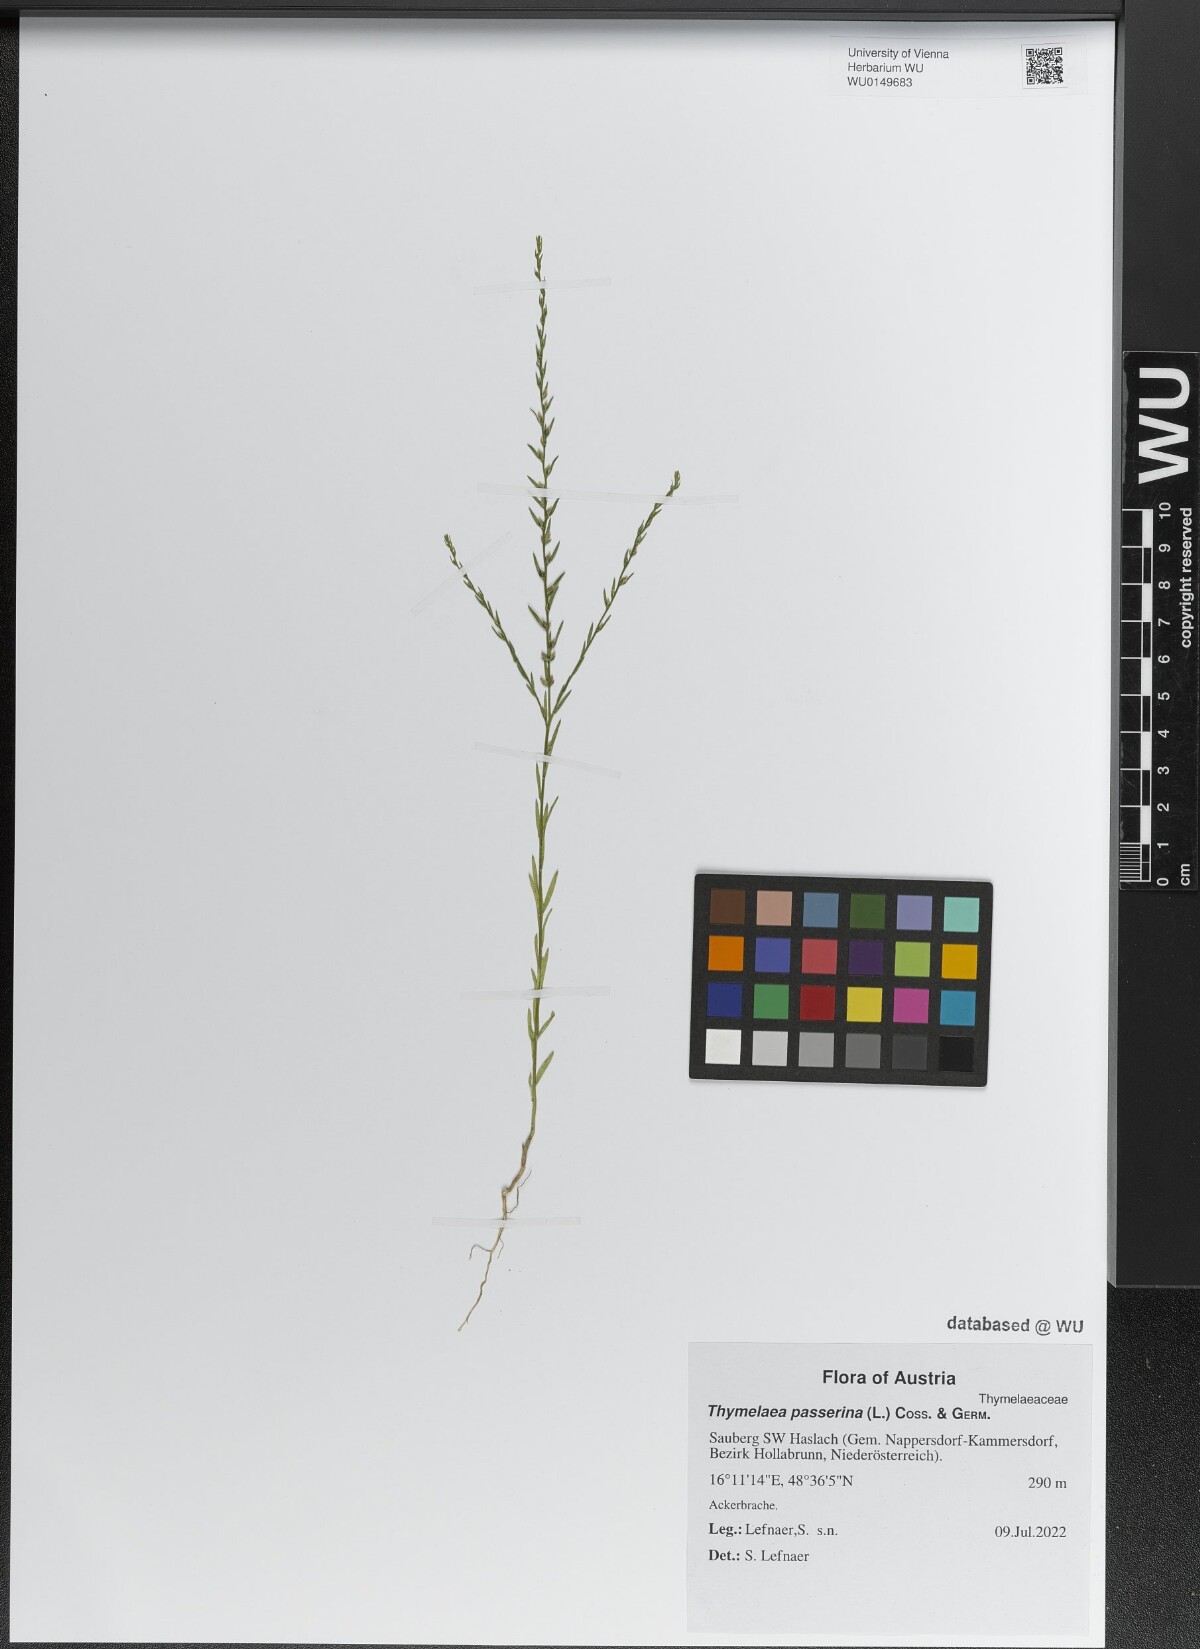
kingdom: Plantae
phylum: Tracheophyta
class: Magnoliopsida
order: Malvales
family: Thymelaeaceae
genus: Thymelaea
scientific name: Thymelaea passerina
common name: Annual thymelaea
